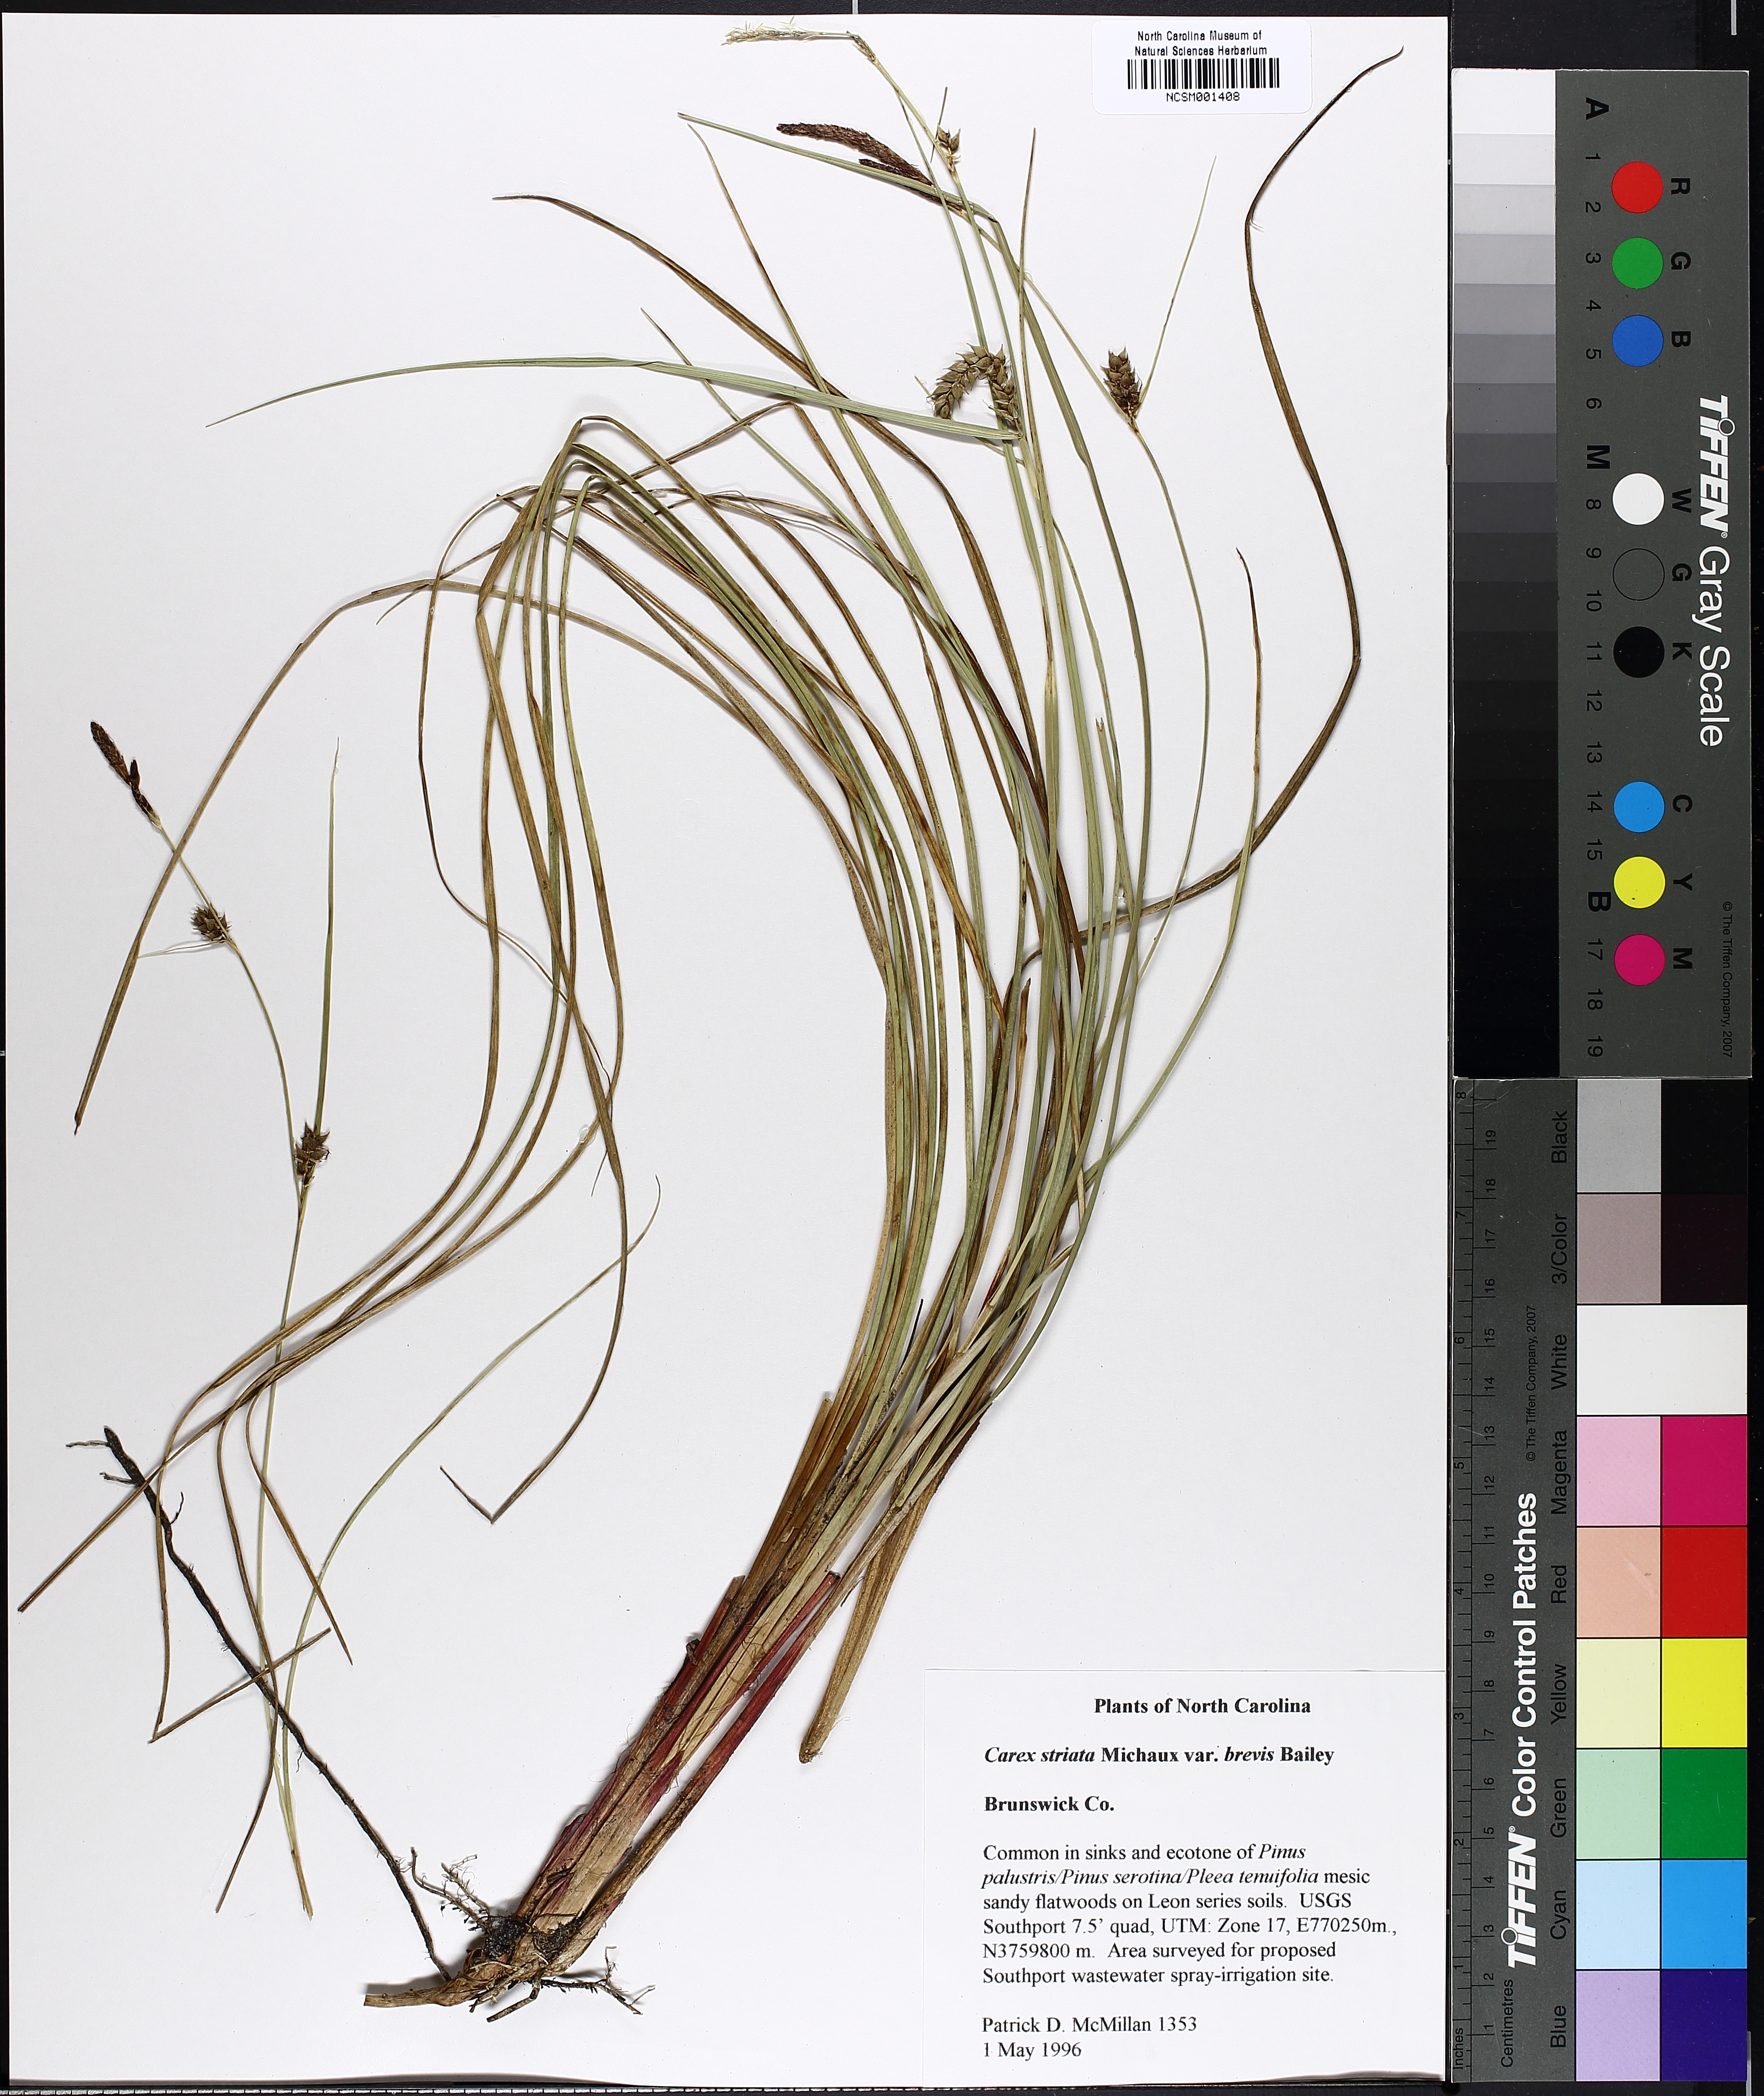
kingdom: Plantae
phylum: Tracheophyta
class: Liliopsida
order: Poales
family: Cyperaceae
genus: Carex
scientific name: Carex striata
